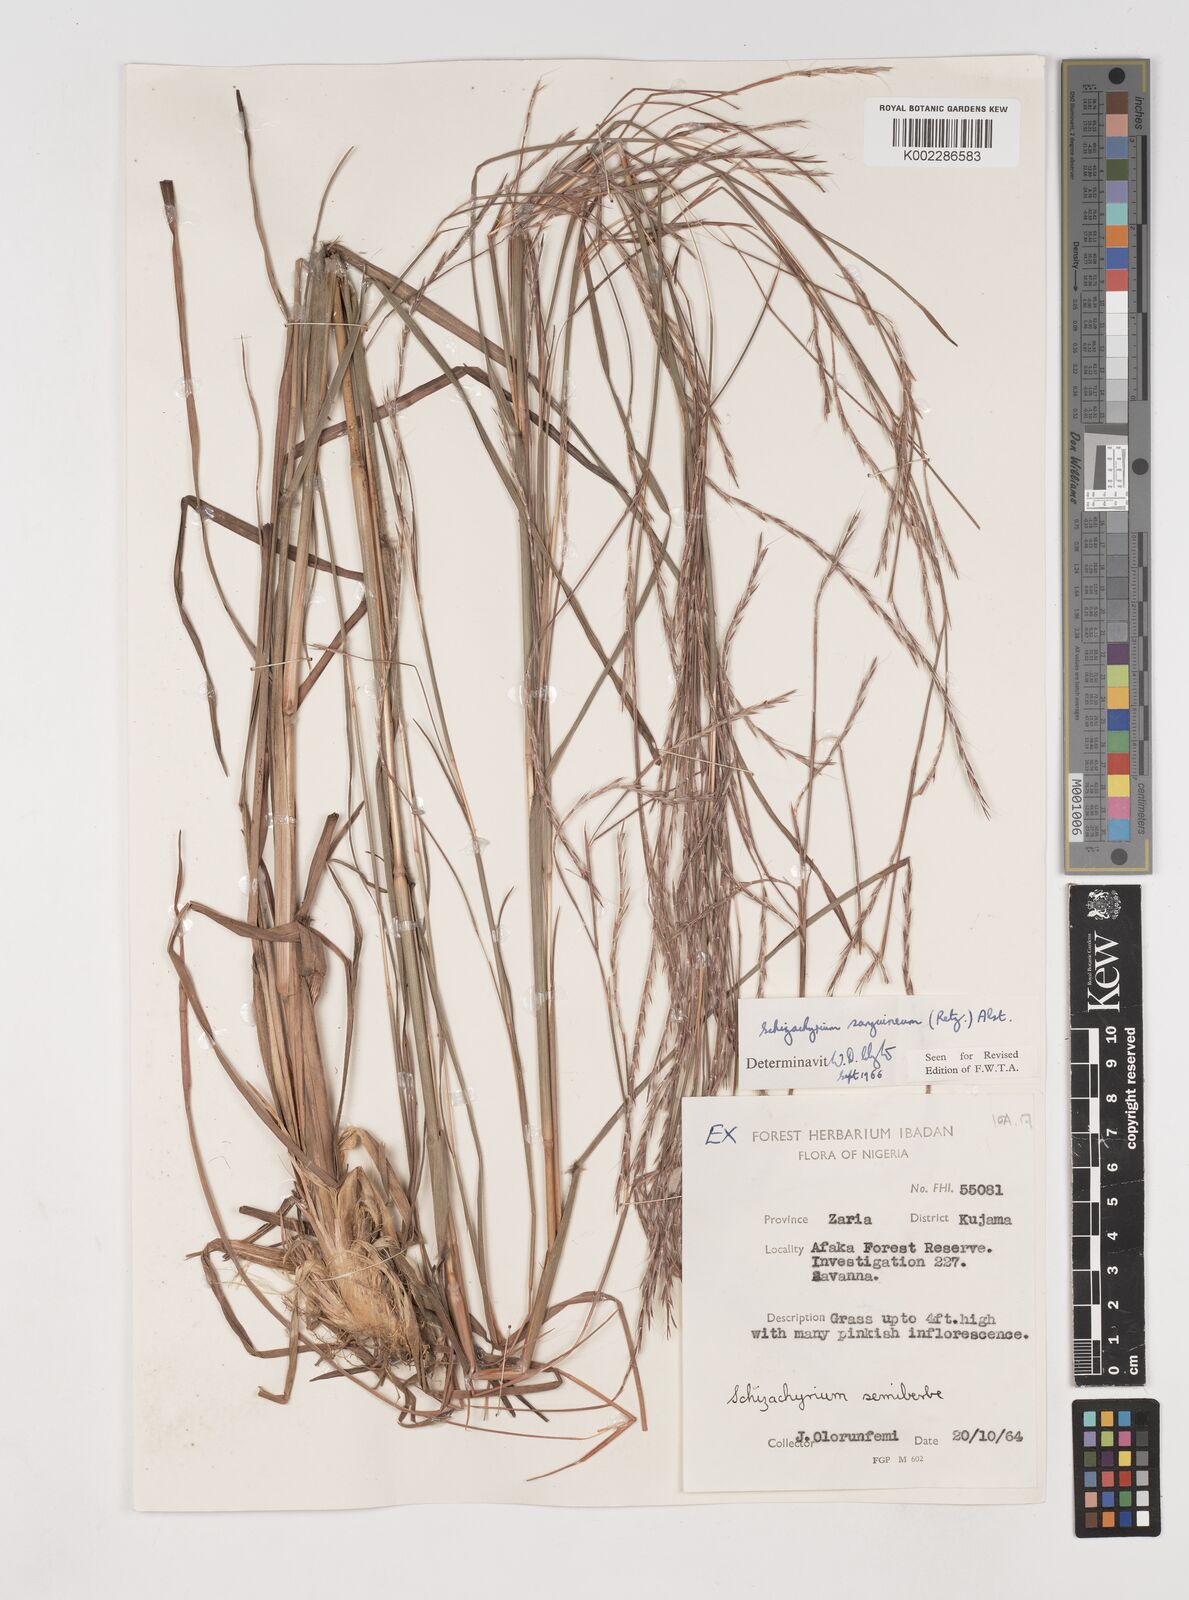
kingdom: Plantae
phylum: Tracheophyta
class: Liliopsida
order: Poales
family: Poaceae
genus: Schizachyrium
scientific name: Schizachyrium sanguineum
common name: Crimson bluestem
